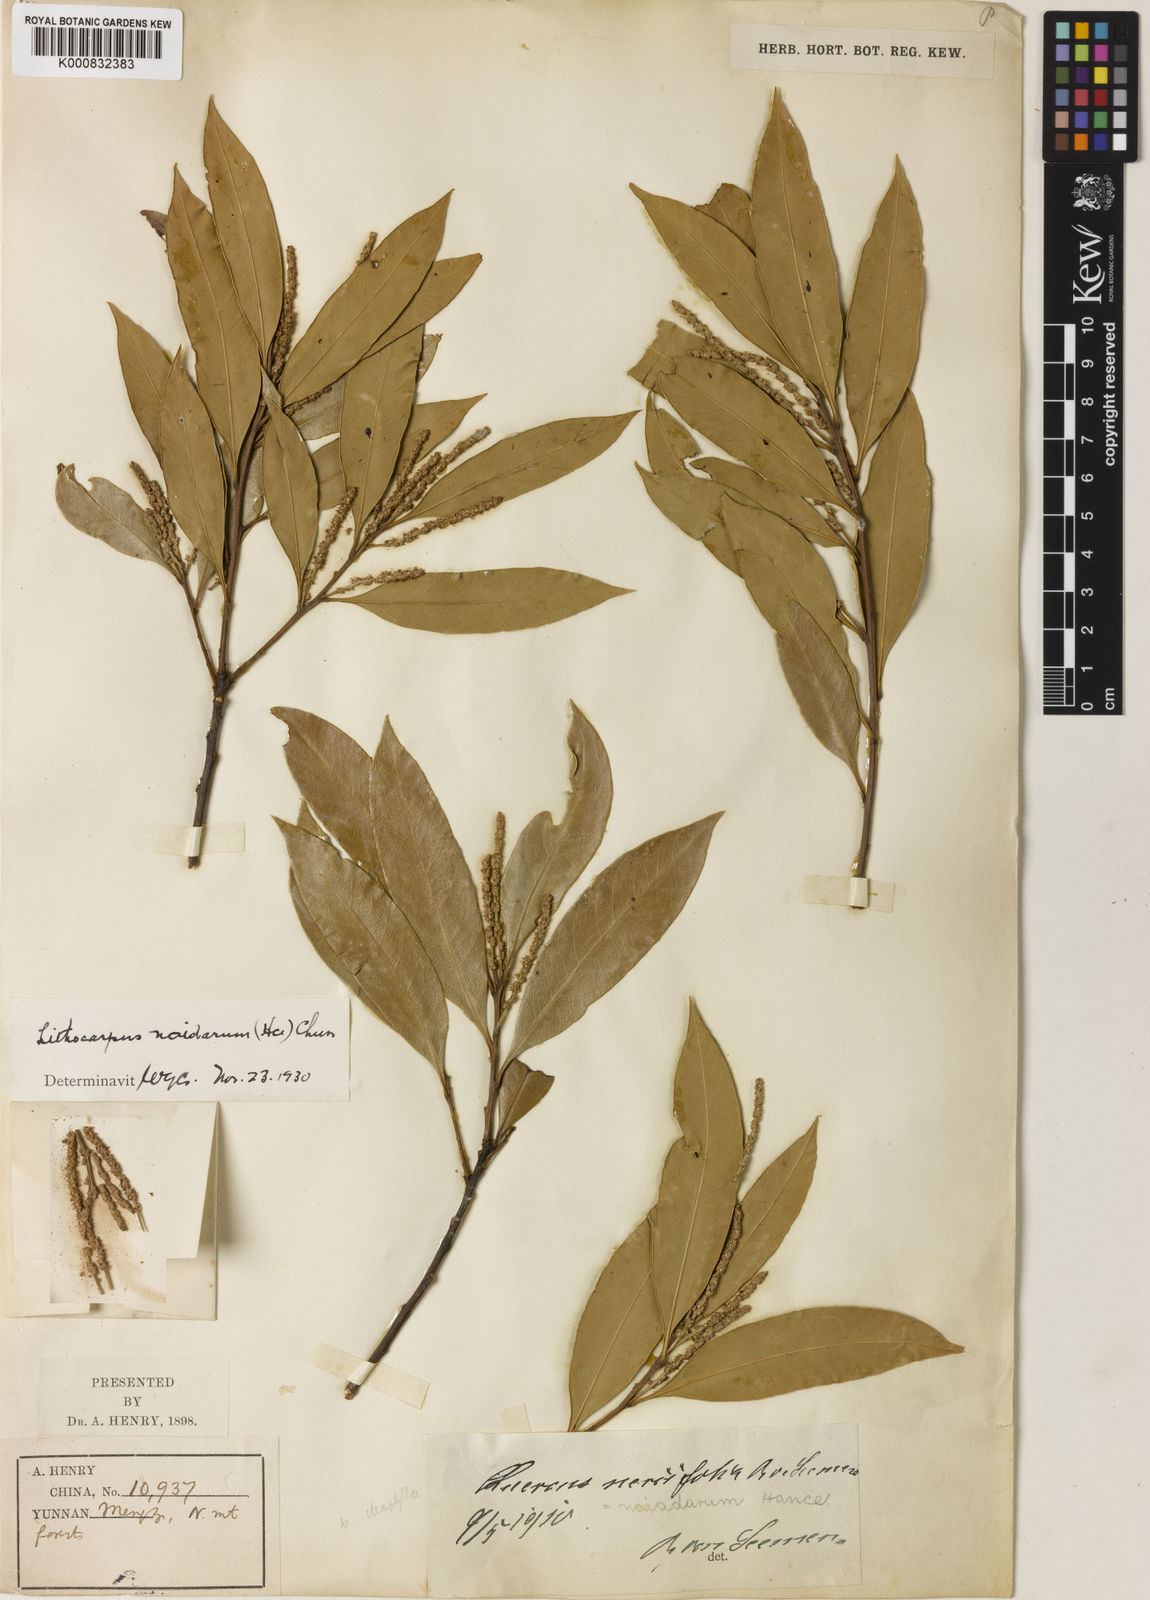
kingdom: Plantae
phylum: Tracheophyta
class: Magnoliopsida
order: Fagales
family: Fagaceae
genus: Lithocarpus
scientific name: Lithocarpus naiadarum
